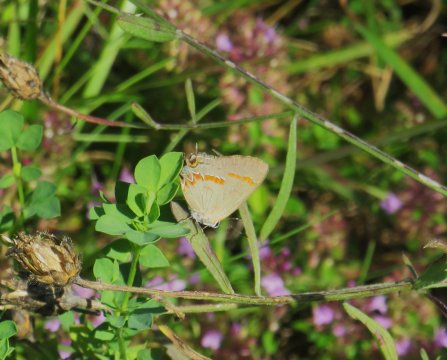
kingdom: Animalia
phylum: Arthropoda
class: Insecta
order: Lepidoptera
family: Lycaenidae
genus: Calycopis
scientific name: Calycopis cecrops
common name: Red-banded Hairstreak
